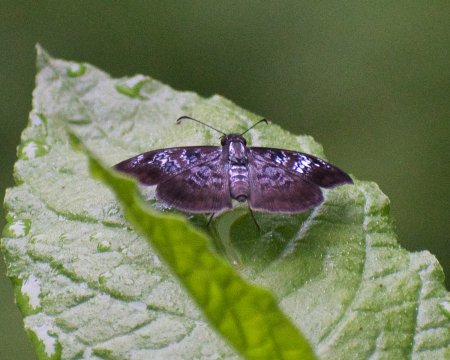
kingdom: Animalia
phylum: Arthropoda
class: Insecta
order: Lepidoptera
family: Hesperiidae
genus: Sophista
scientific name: Sophista bifasciata
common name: Blue-studded Skipper
